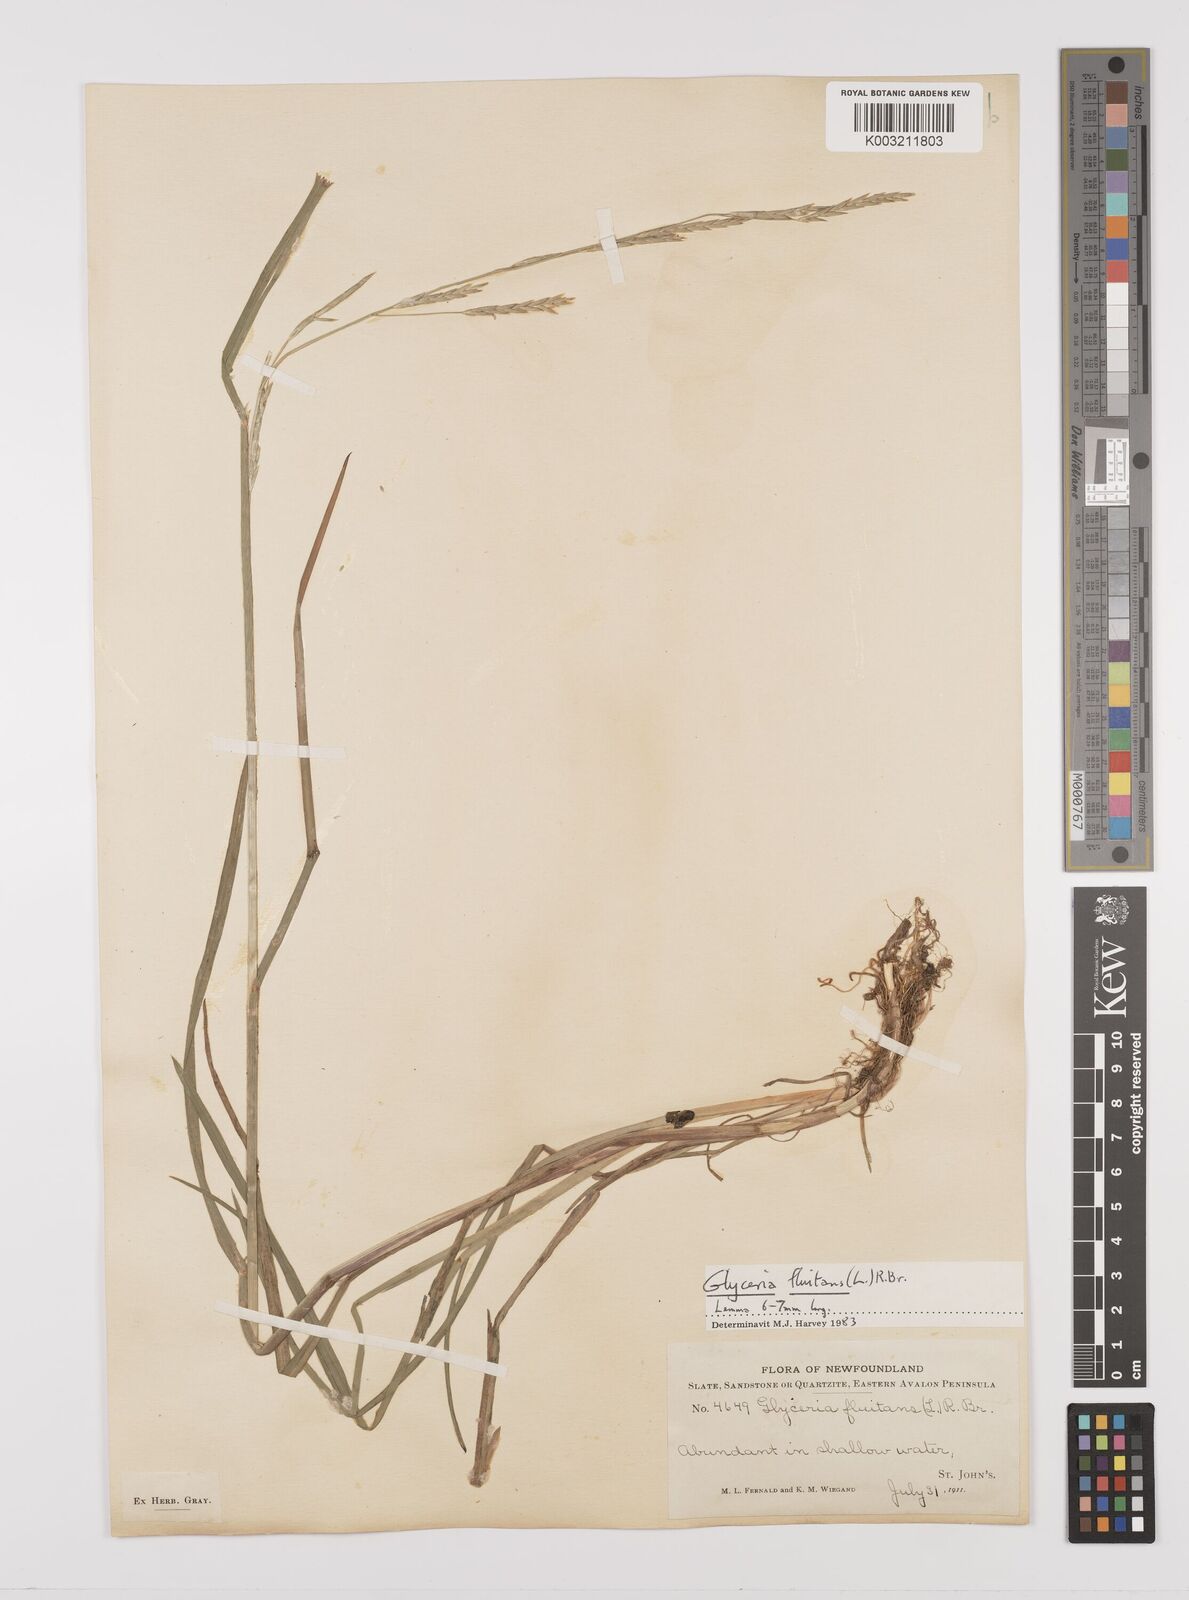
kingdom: Plantae
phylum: Tracheophyta
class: Liliopsida
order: Poales
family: Poaceae
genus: Glyceria
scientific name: Glyceria fluitans
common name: Floating sweet-grass
